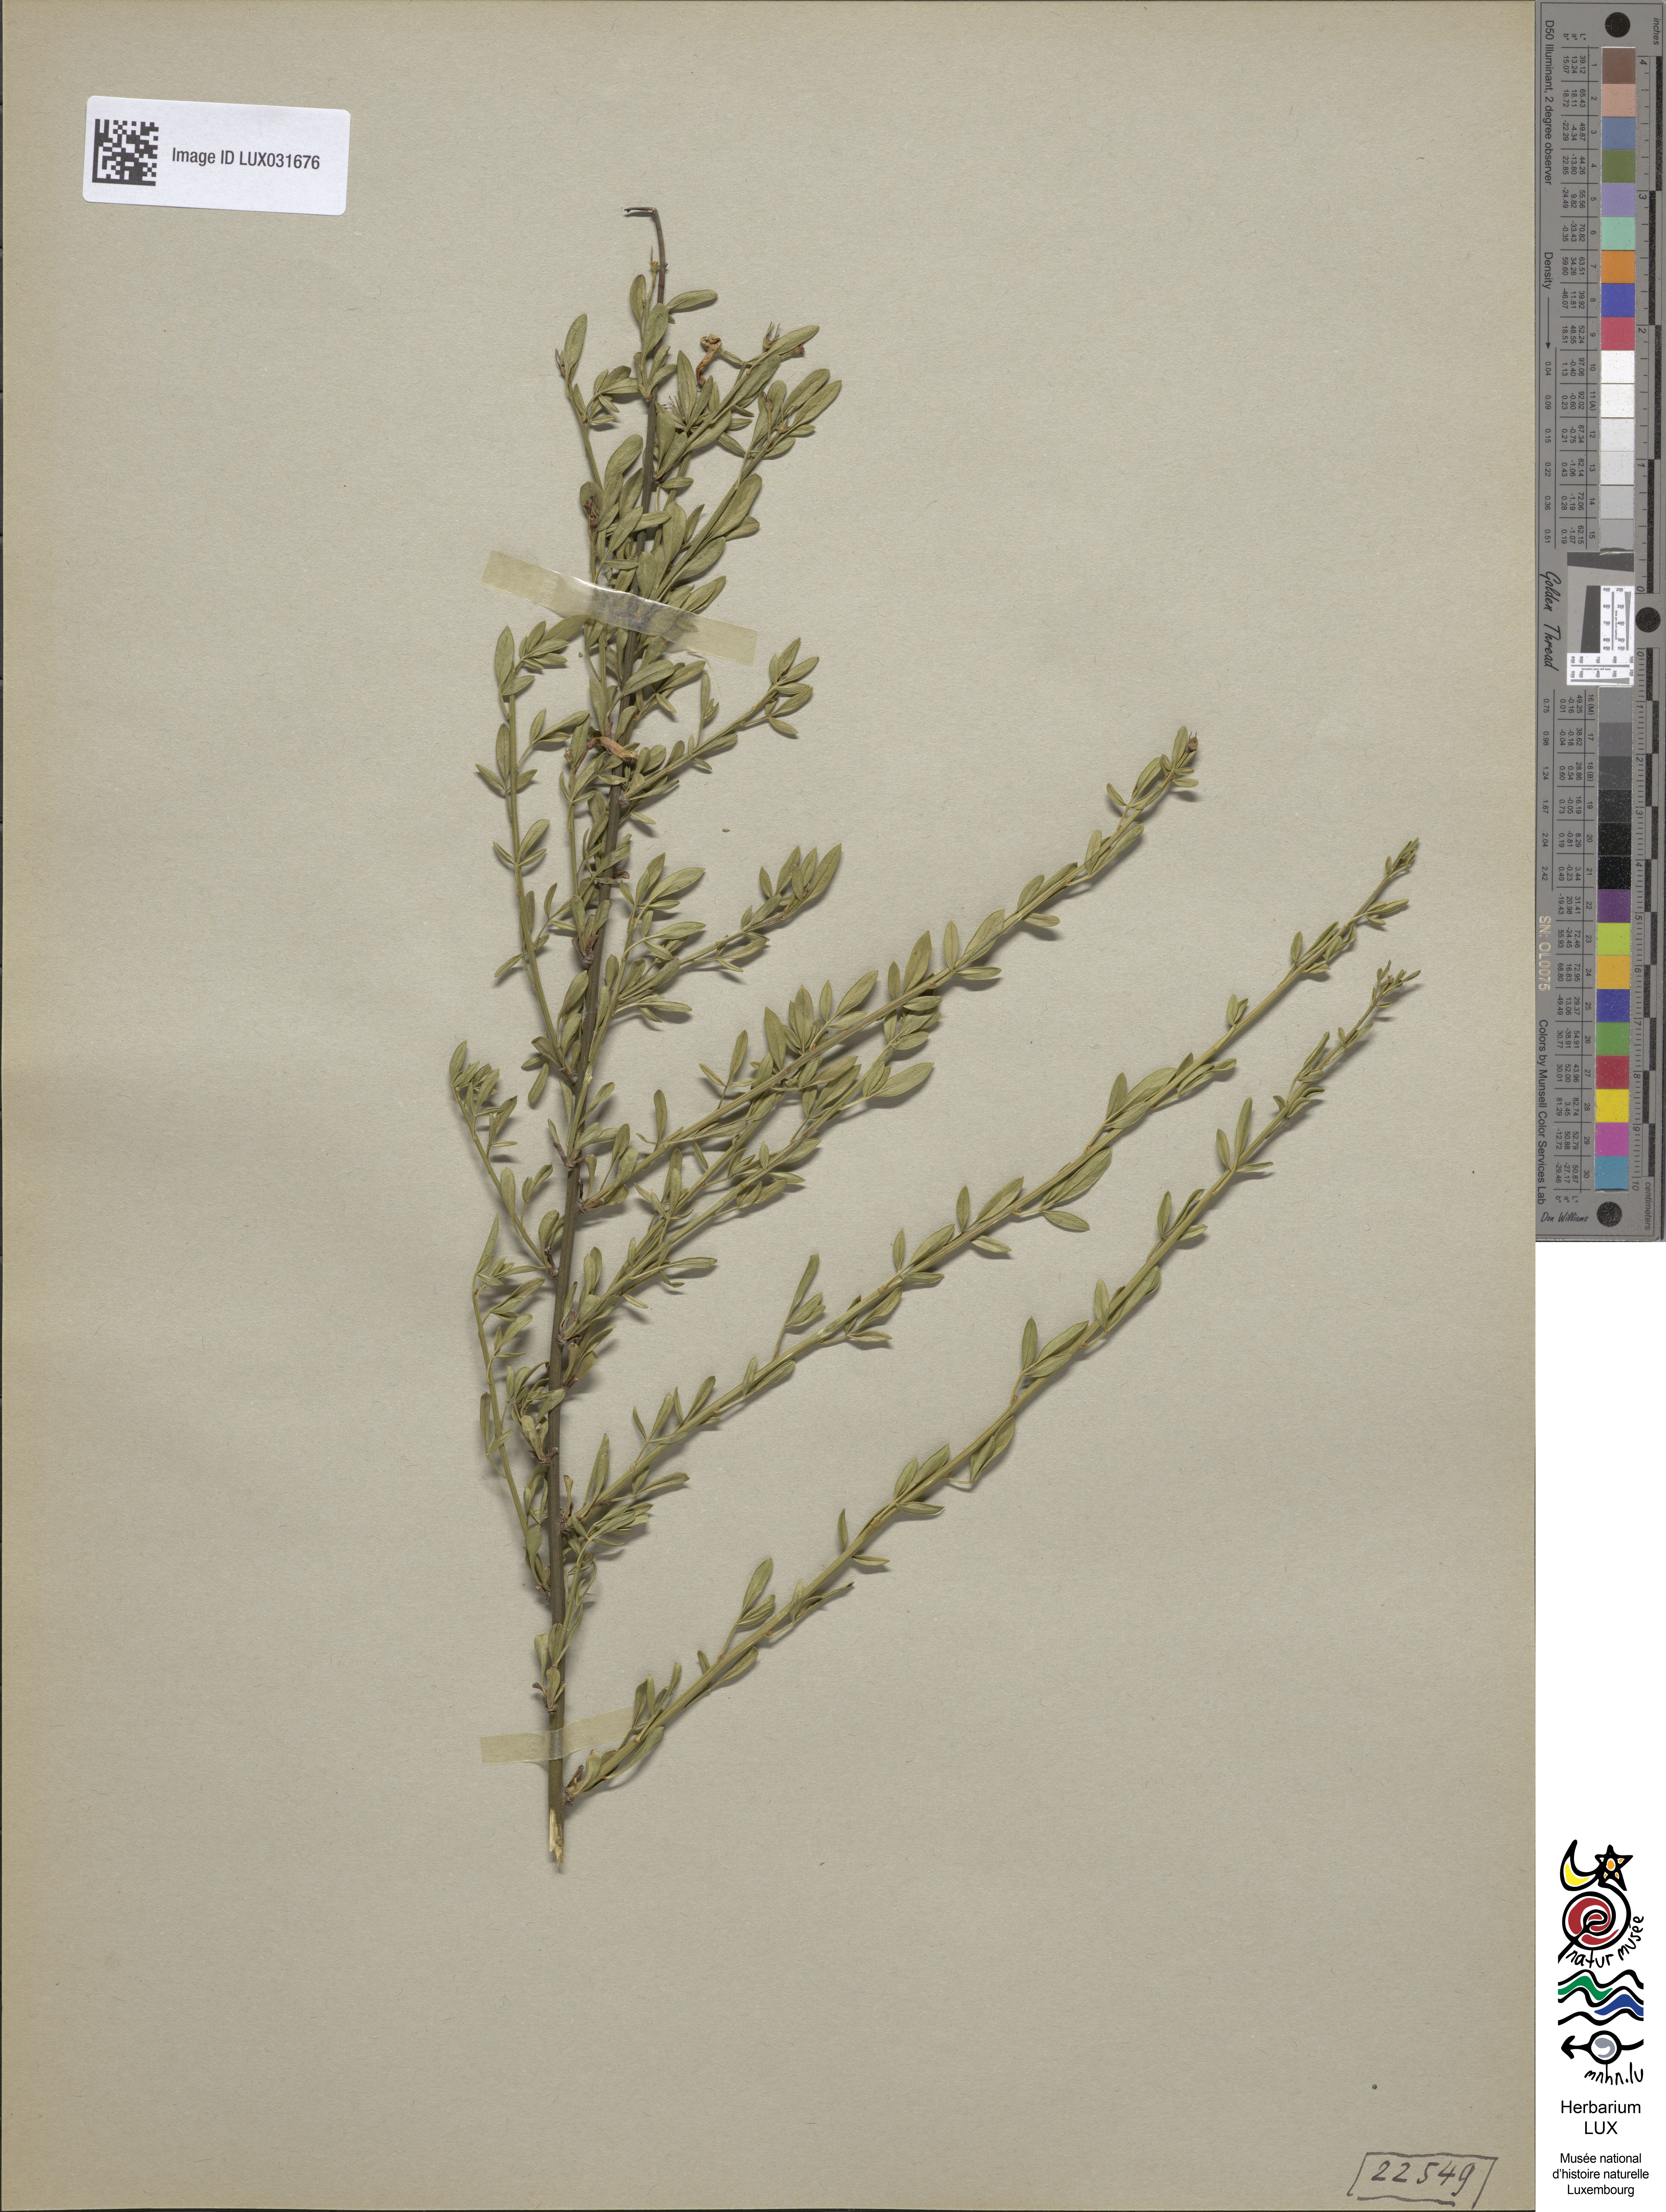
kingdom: Plantae
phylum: Tracheophyta
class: Magnoliopsida
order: Lamiales
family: Oleaceae
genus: Chrysojasminum
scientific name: Chrysojasminum fruticans
